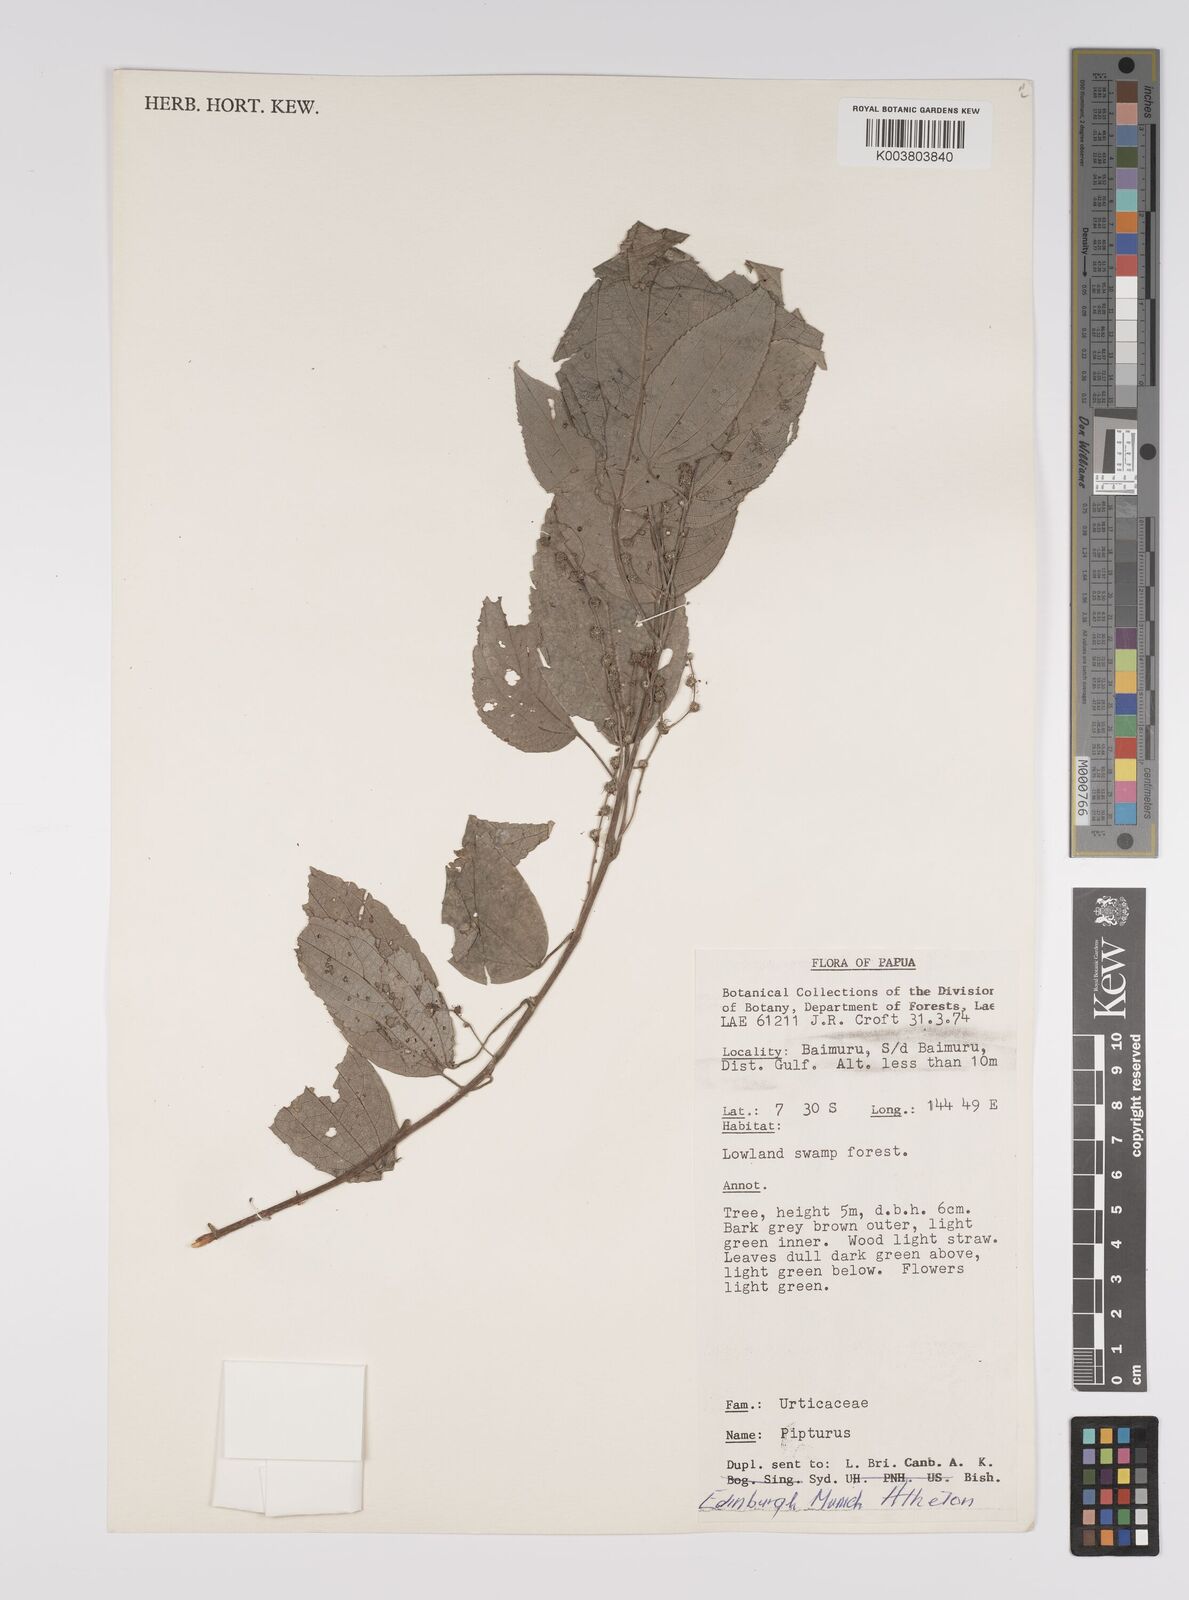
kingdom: Plantae
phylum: Tracheophyta
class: Magnoliopsida
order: Rosales
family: Urticaceae
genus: Pipturus
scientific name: Pipturus argenteus
